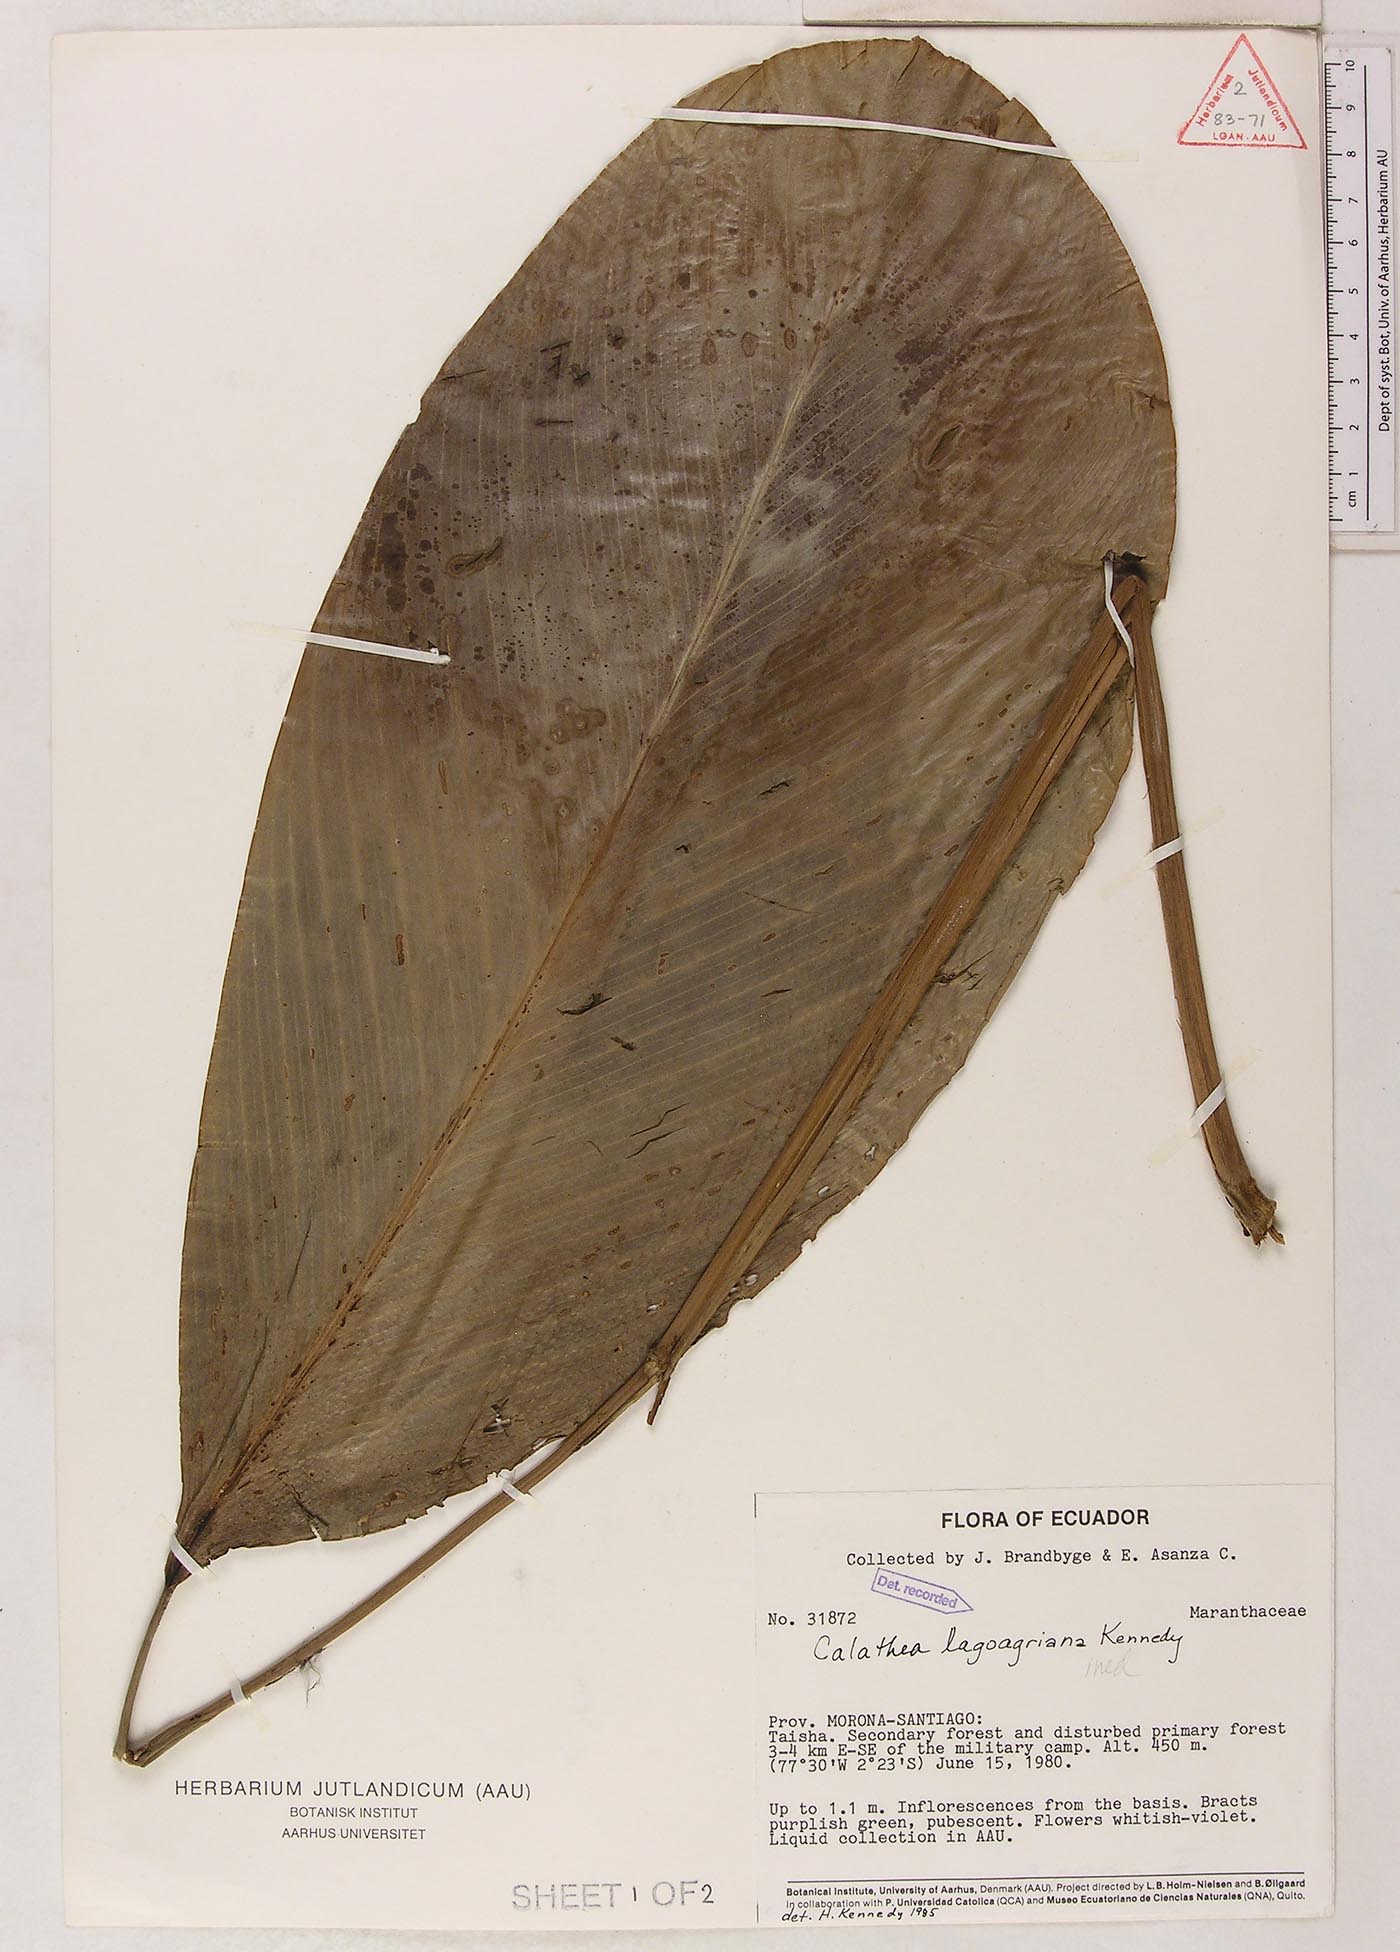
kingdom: Plantae
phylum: Tracheophyta
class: Liliopsida
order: Zingiberales
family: Marantaceae
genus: Goeppertia
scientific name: Goeppertia lagoagriana
